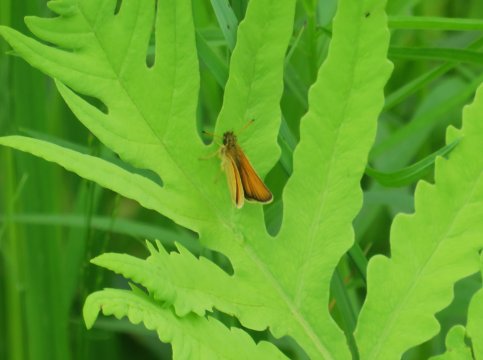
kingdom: Animalia
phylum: Arthropoda
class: Insecta
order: Lepidoptera
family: Hesperiidae
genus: Thymelicus
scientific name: Thymelicus lineola
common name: European Skipper
